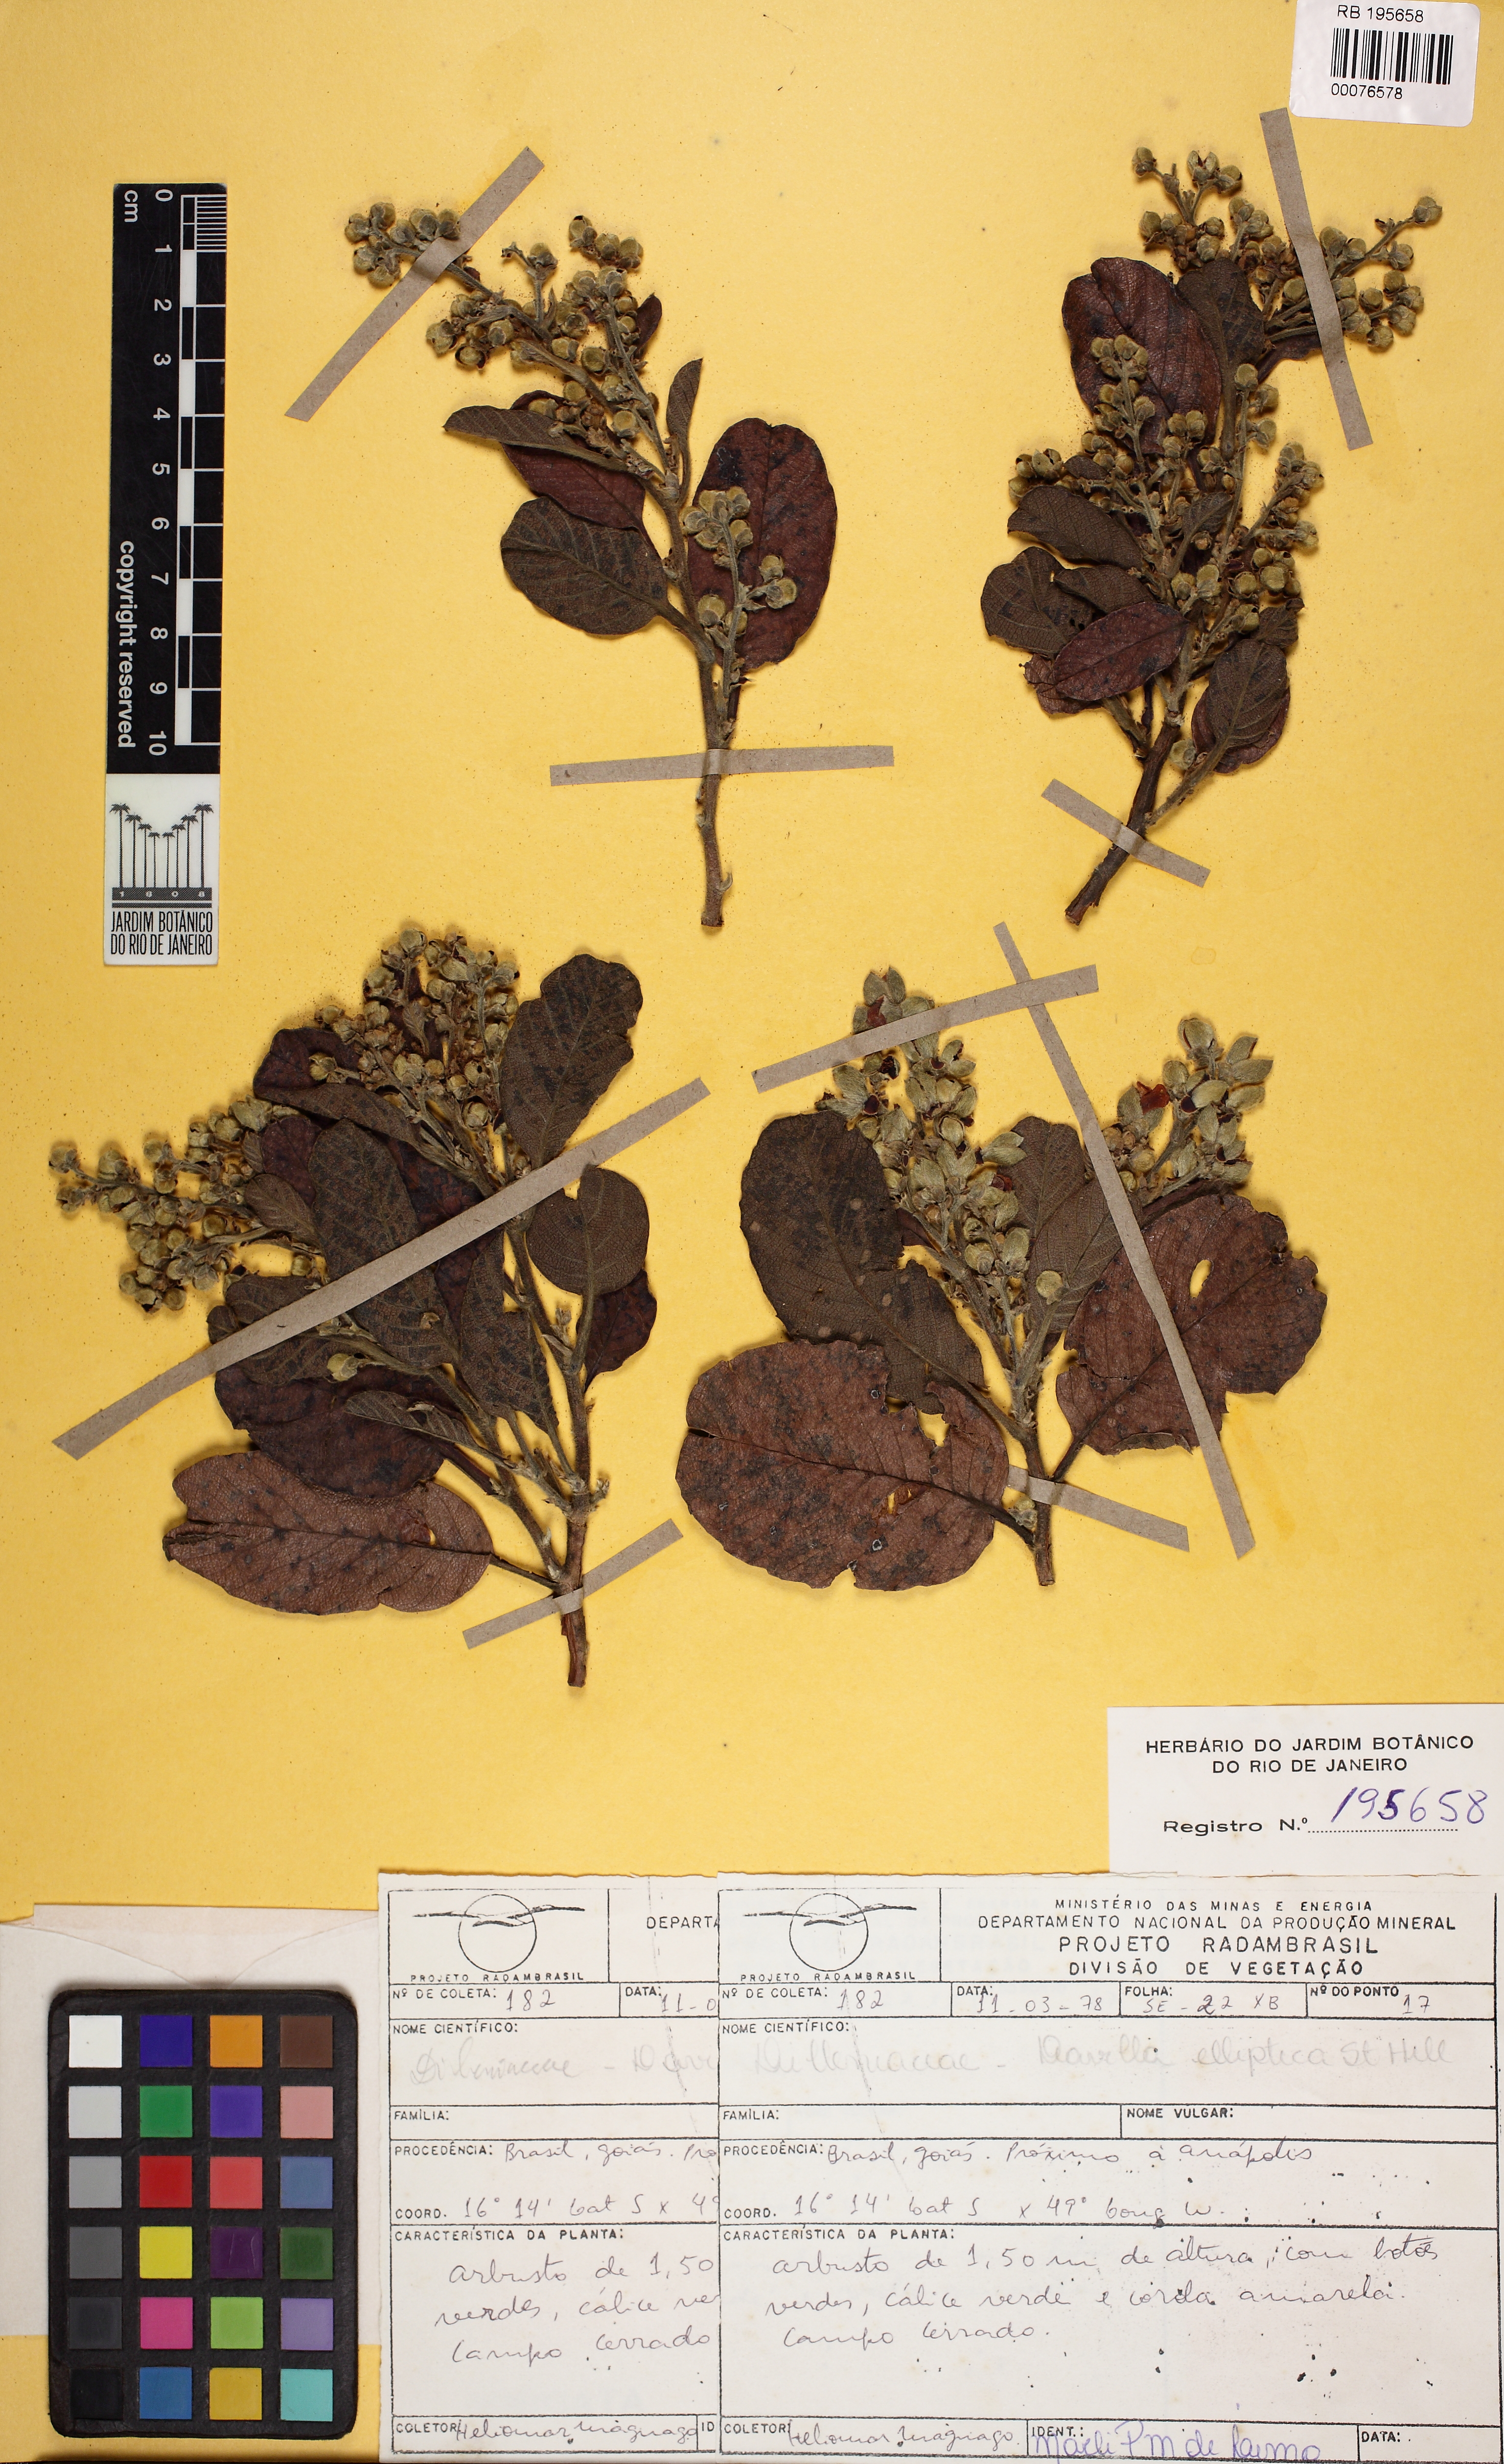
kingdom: Plantae
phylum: Tracheophyta
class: Magnoliopsida
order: Dilleniales
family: Dilleniaceae
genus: Davilla
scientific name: Davilla elliptica
